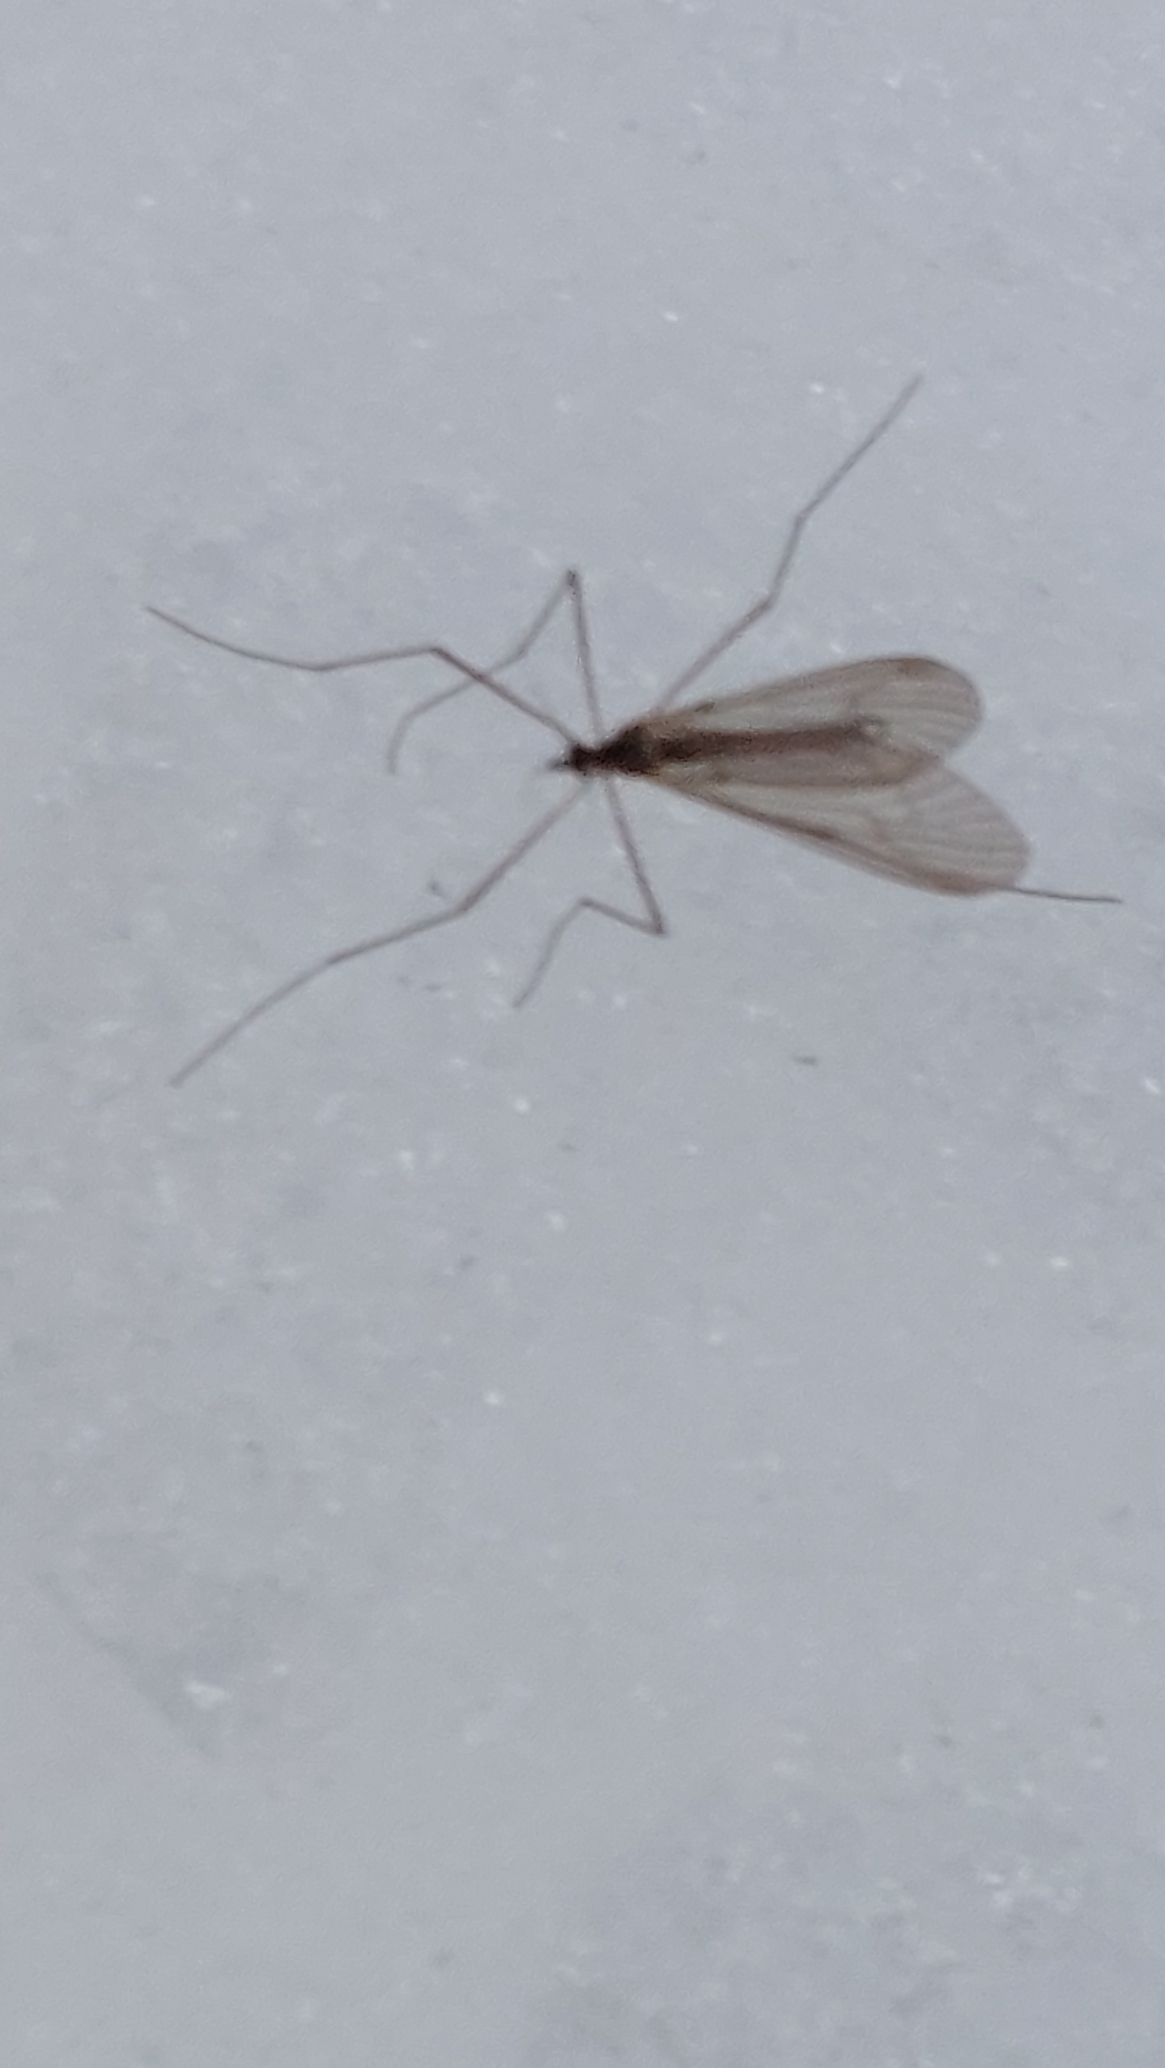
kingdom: Animalia
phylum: Arthropoda
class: Insecta
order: Diptera
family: Trichoceridae
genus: Trichocera
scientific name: Trichocera
